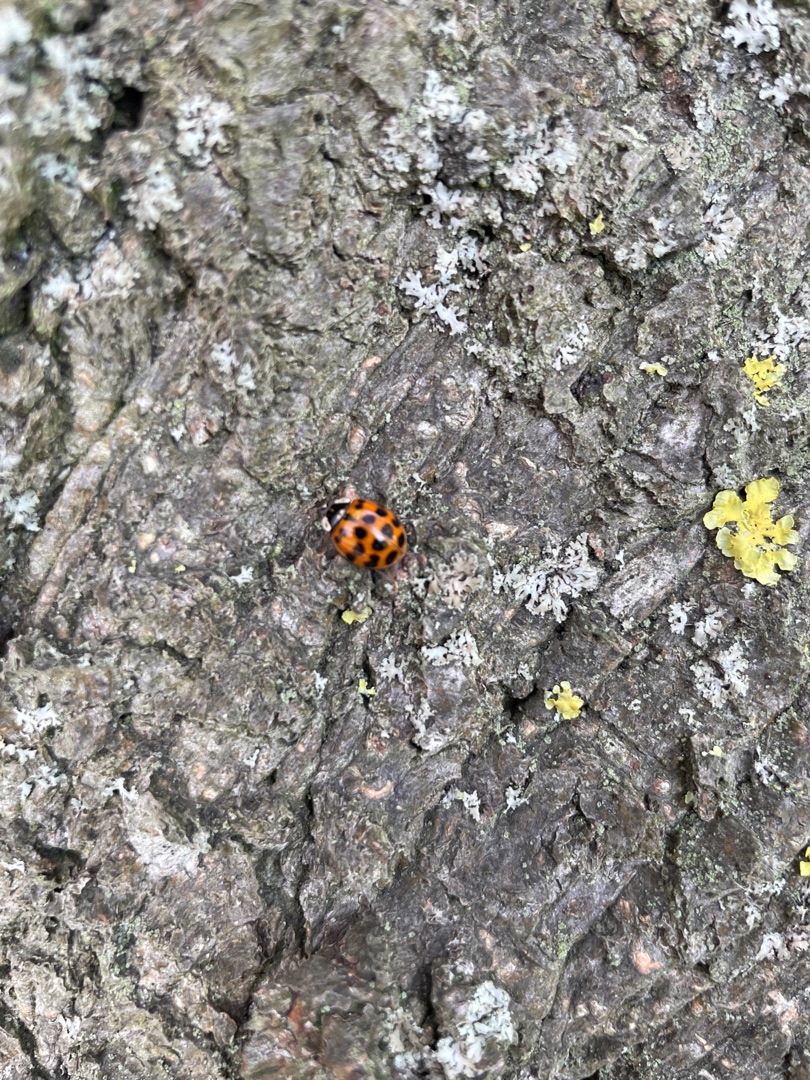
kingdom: Animalia
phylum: Arthropoda
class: Insecta
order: Coleoptera
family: Coccinellidae
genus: Harmonia
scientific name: Harmonia axyridis
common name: Harlekinmariehøne
